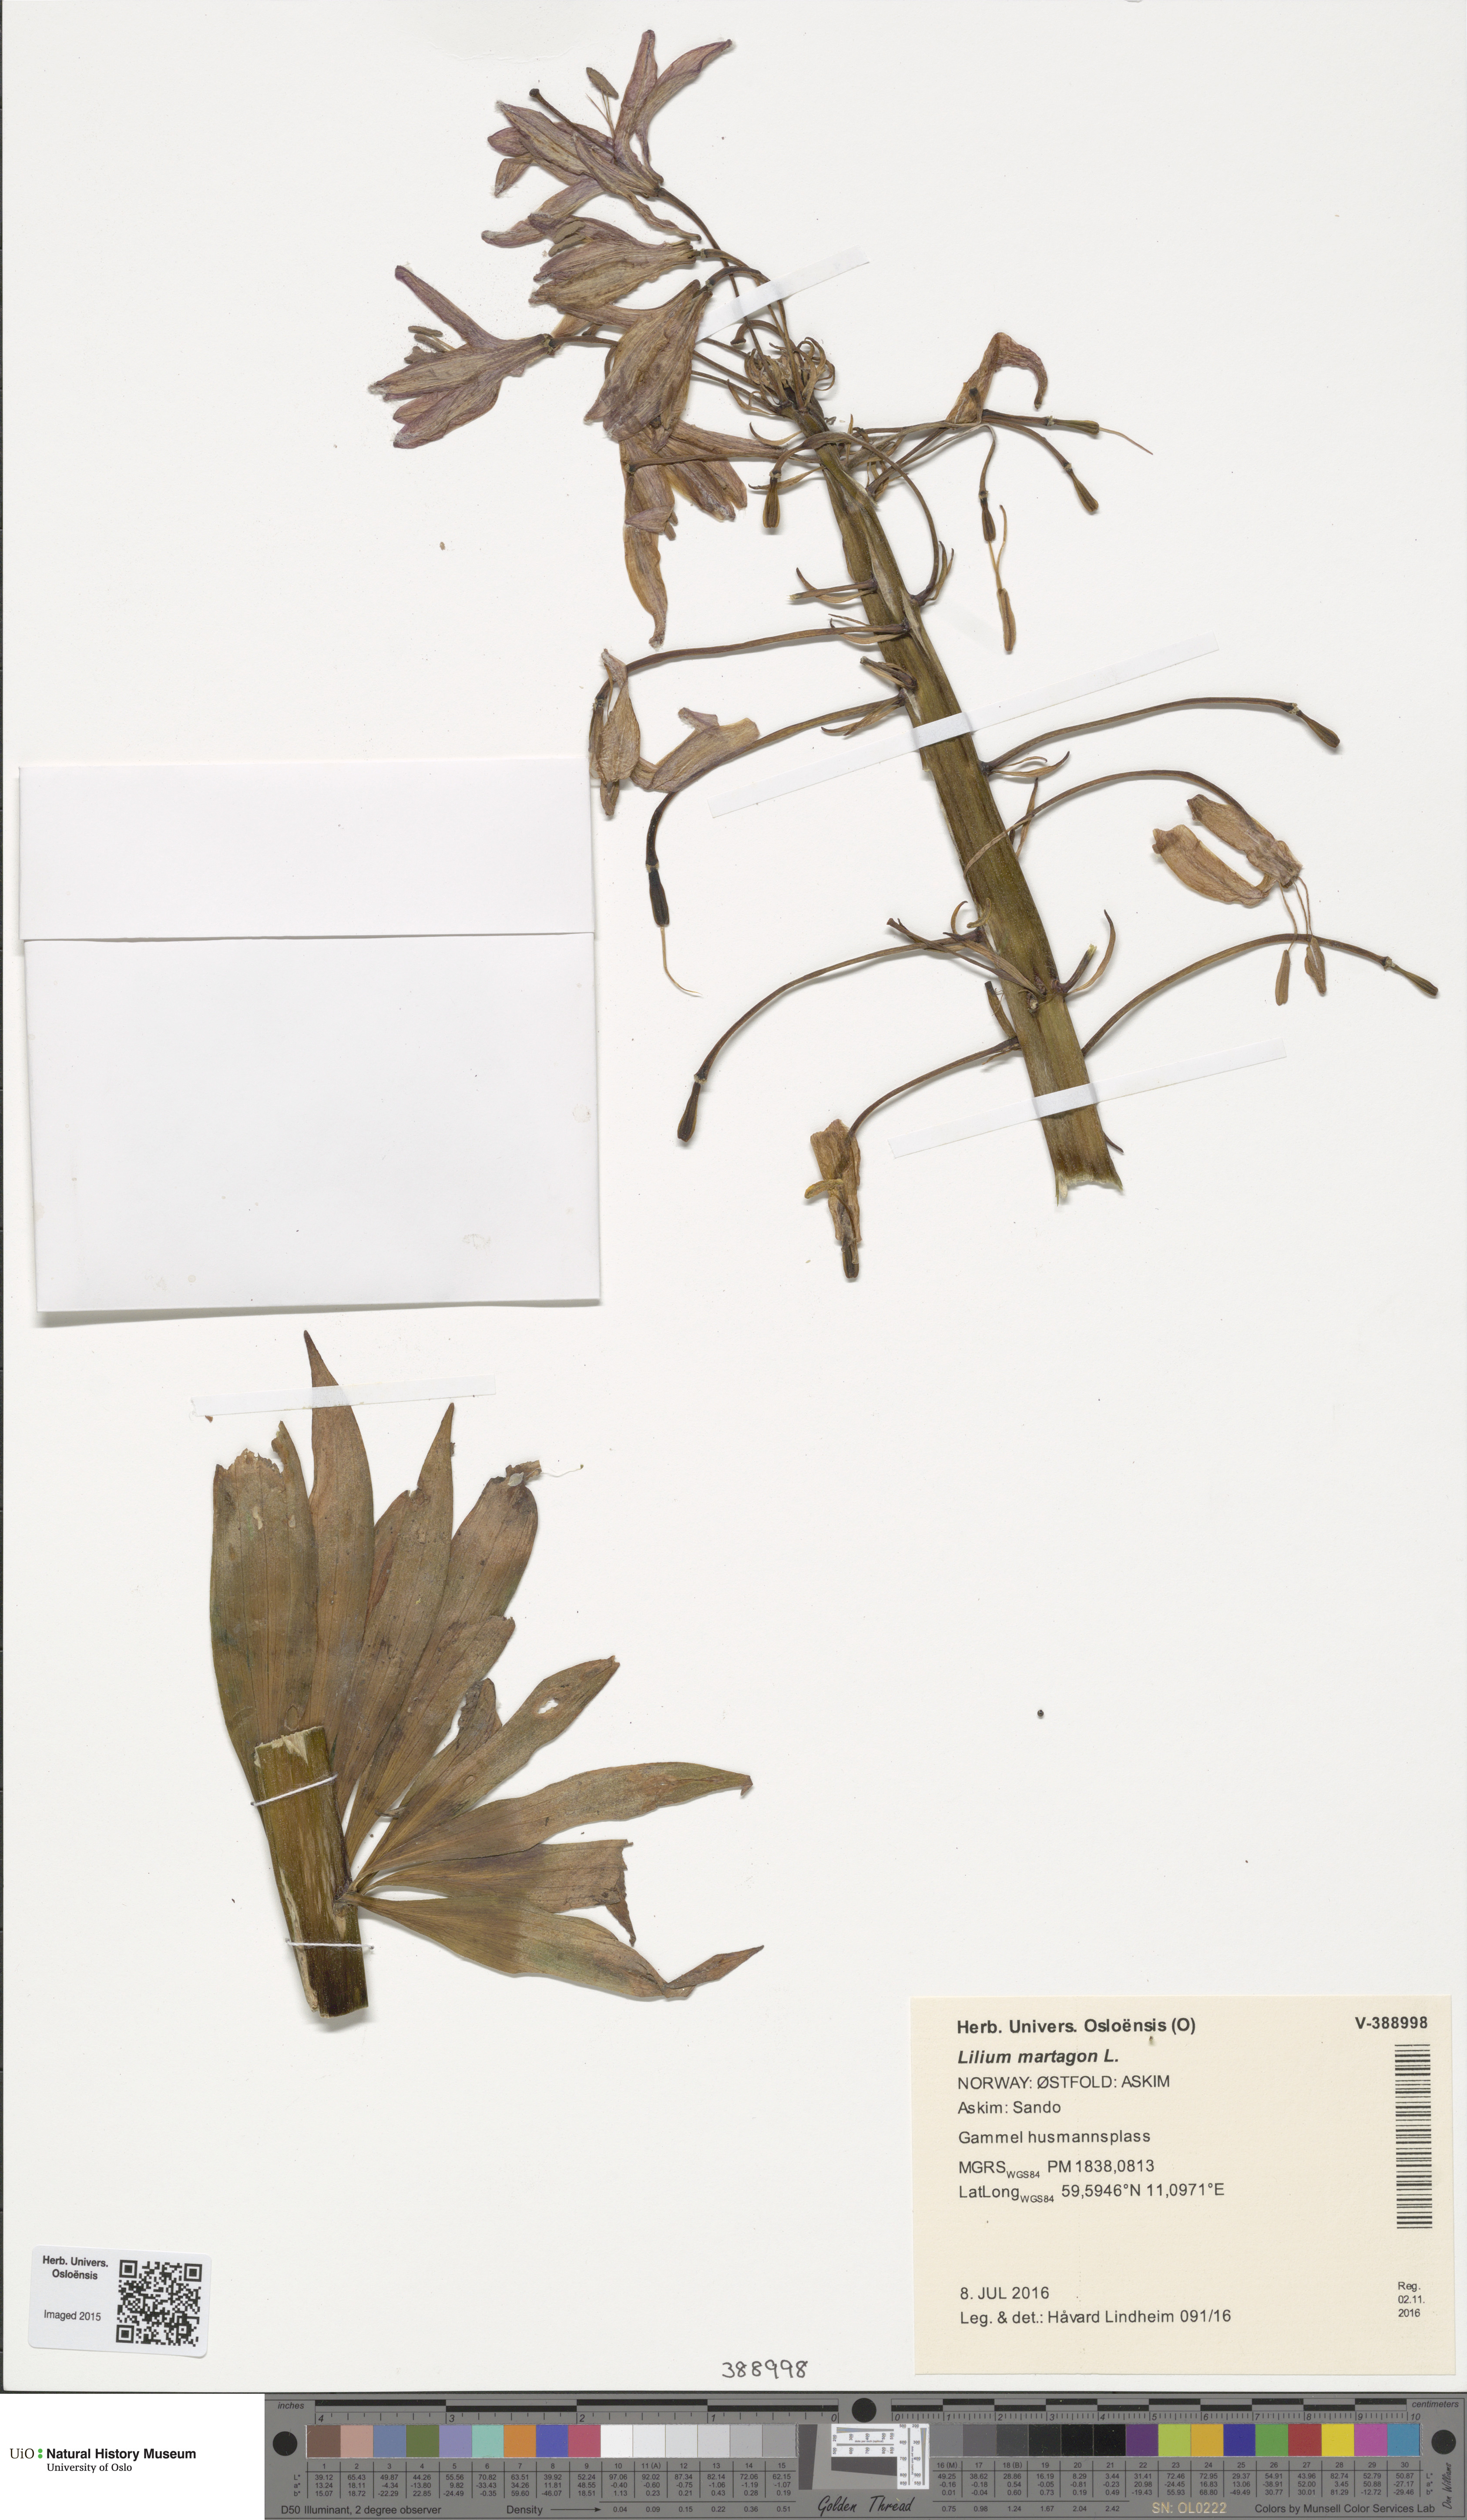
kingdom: Plantae
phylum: Tracheophyta
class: Liliopsida
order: Liliales
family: Liliaceae
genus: Lilium
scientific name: Lilium martagon
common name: Martagon lily
